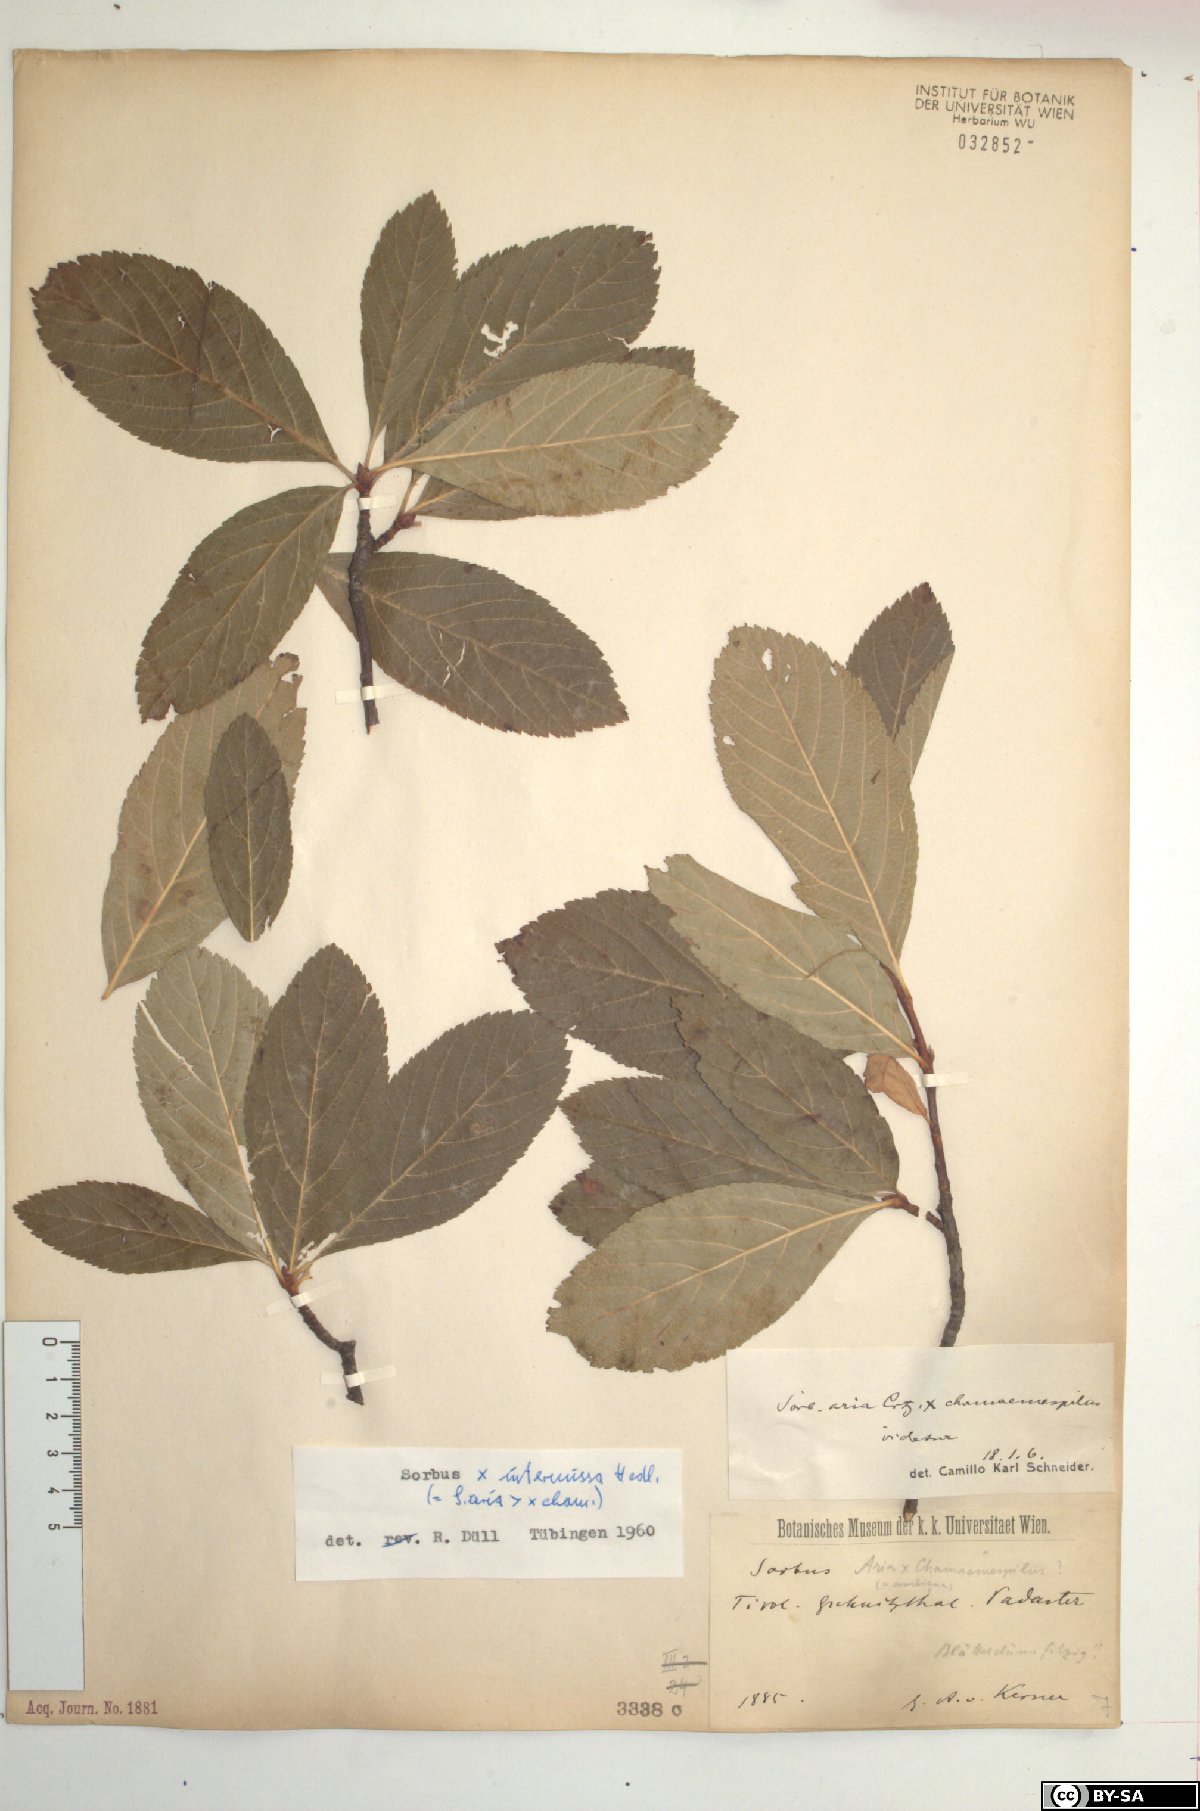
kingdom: Plantae
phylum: Tracheophyta
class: Magnoliopsida
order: Rosales
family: Rosaceae
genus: Majovskya
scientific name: Majovskya sudetica
